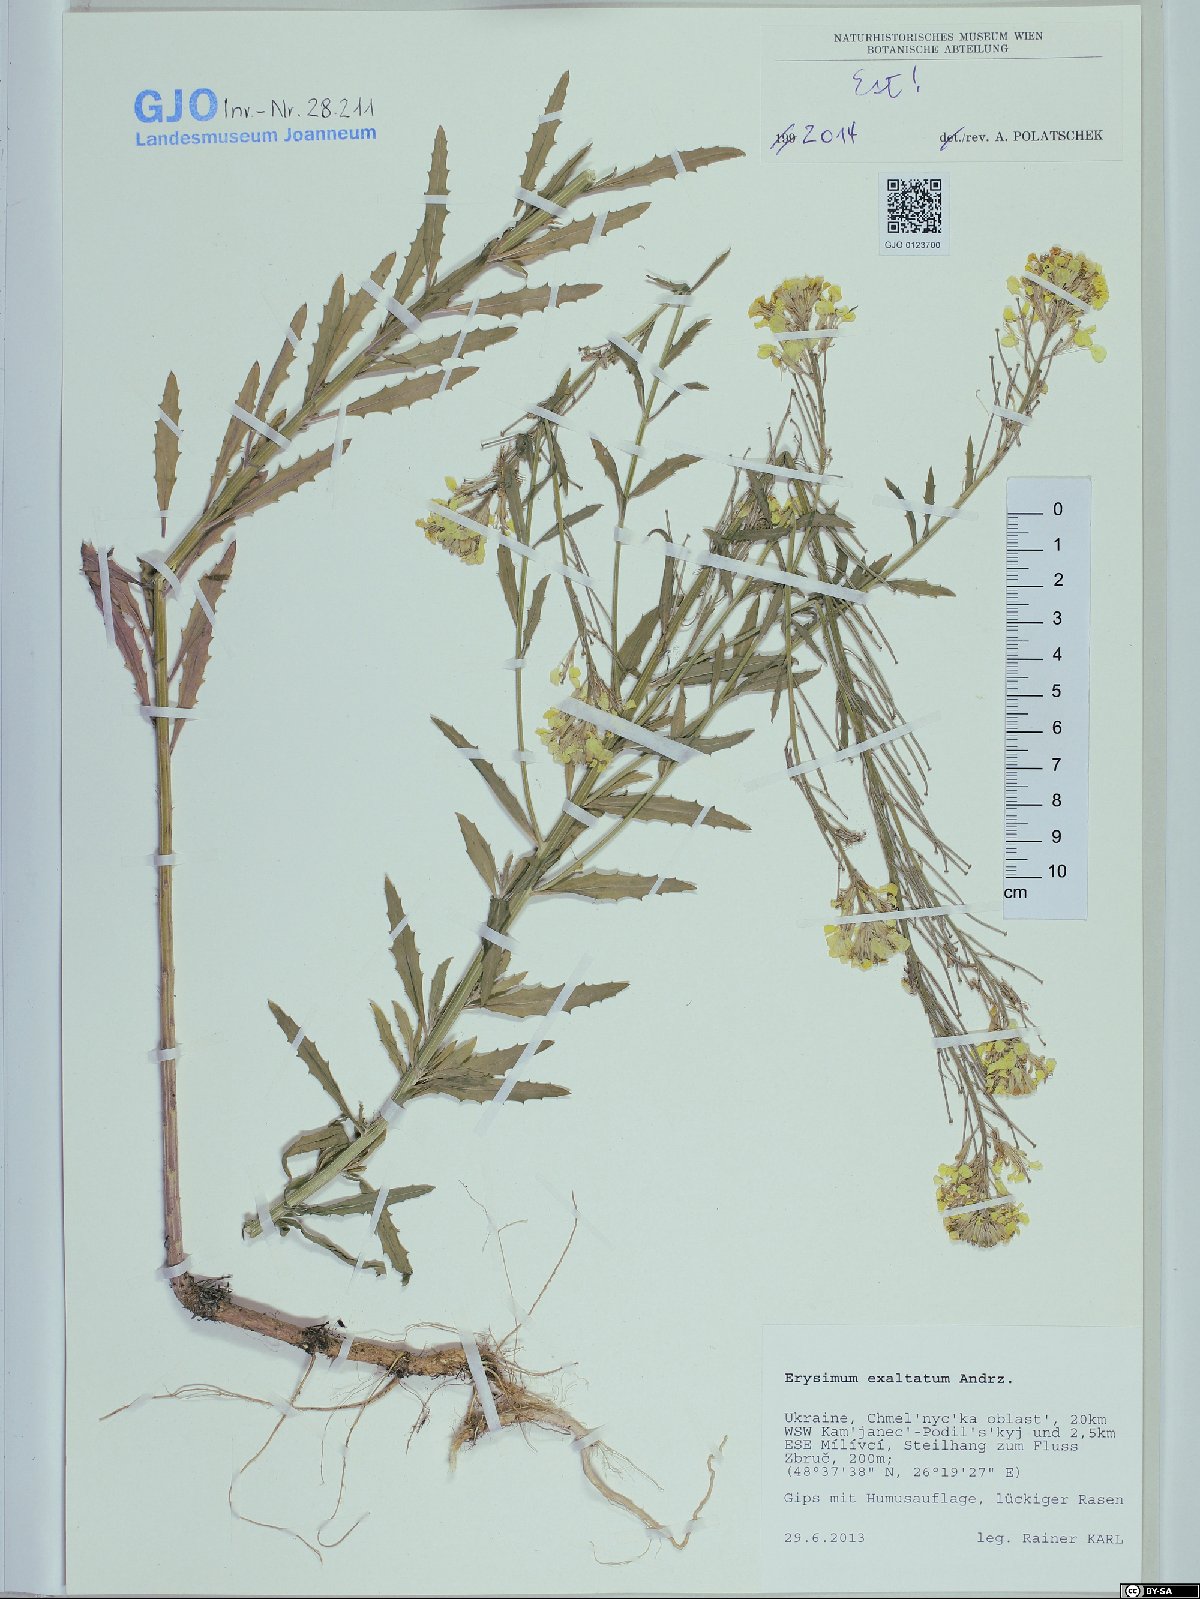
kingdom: Plantae
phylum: Tracheophyta
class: Magnoliopsida
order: Brassicales
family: Brassicaceae
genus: Erysimum
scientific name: Erysimum exaltatum
